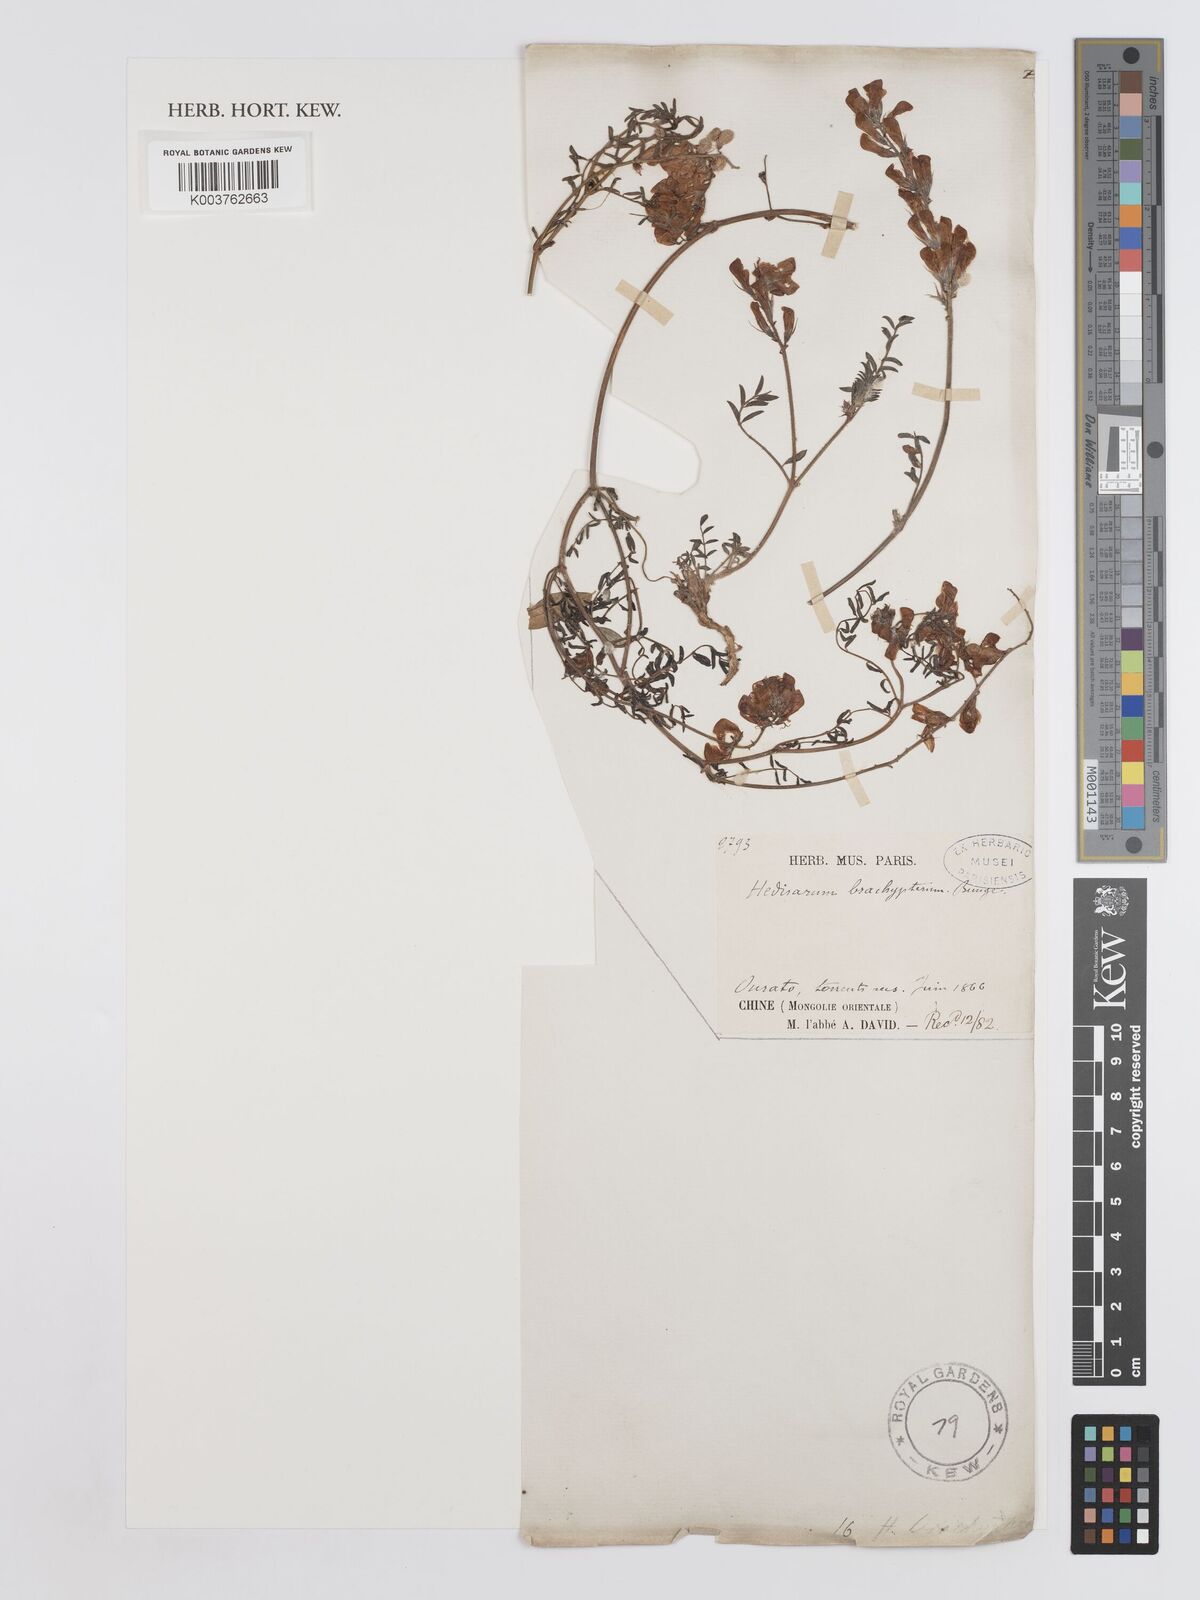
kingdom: Plantae
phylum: Tracheophyta
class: Magnoliopsida
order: Fabales
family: Fabaceae
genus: Hedysarum
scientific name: Hedysarum brachypterum
